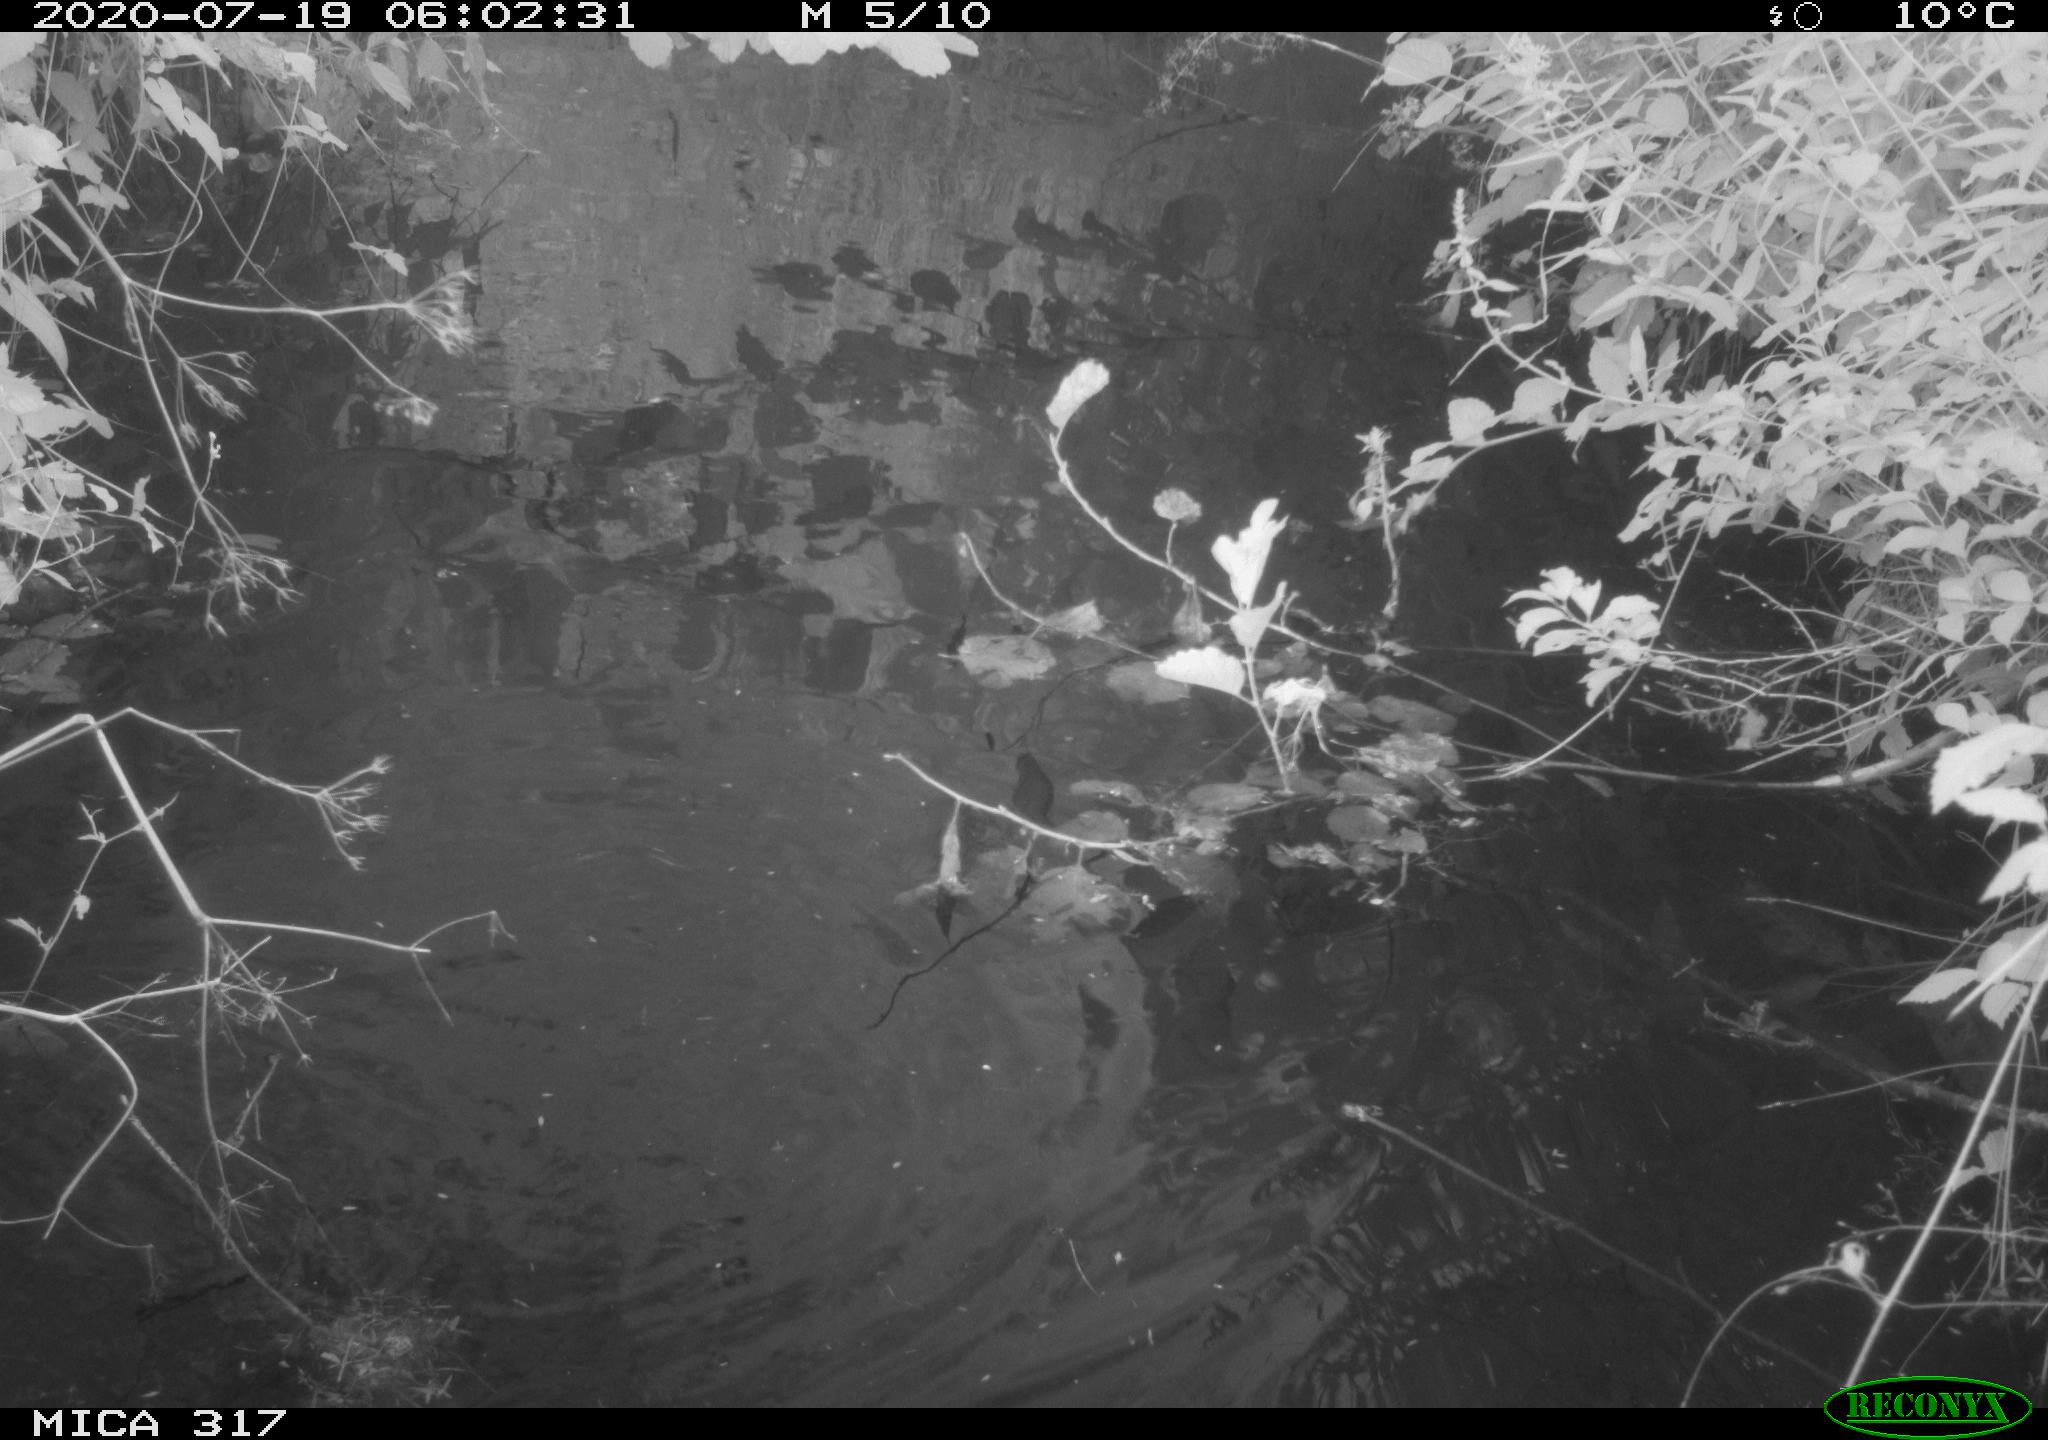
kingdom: Animalia
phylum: Chordata
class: Aves
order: Anseriformes
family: Anatidae
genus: Anas
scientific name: Anas platyrhynchos
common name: Mallard
